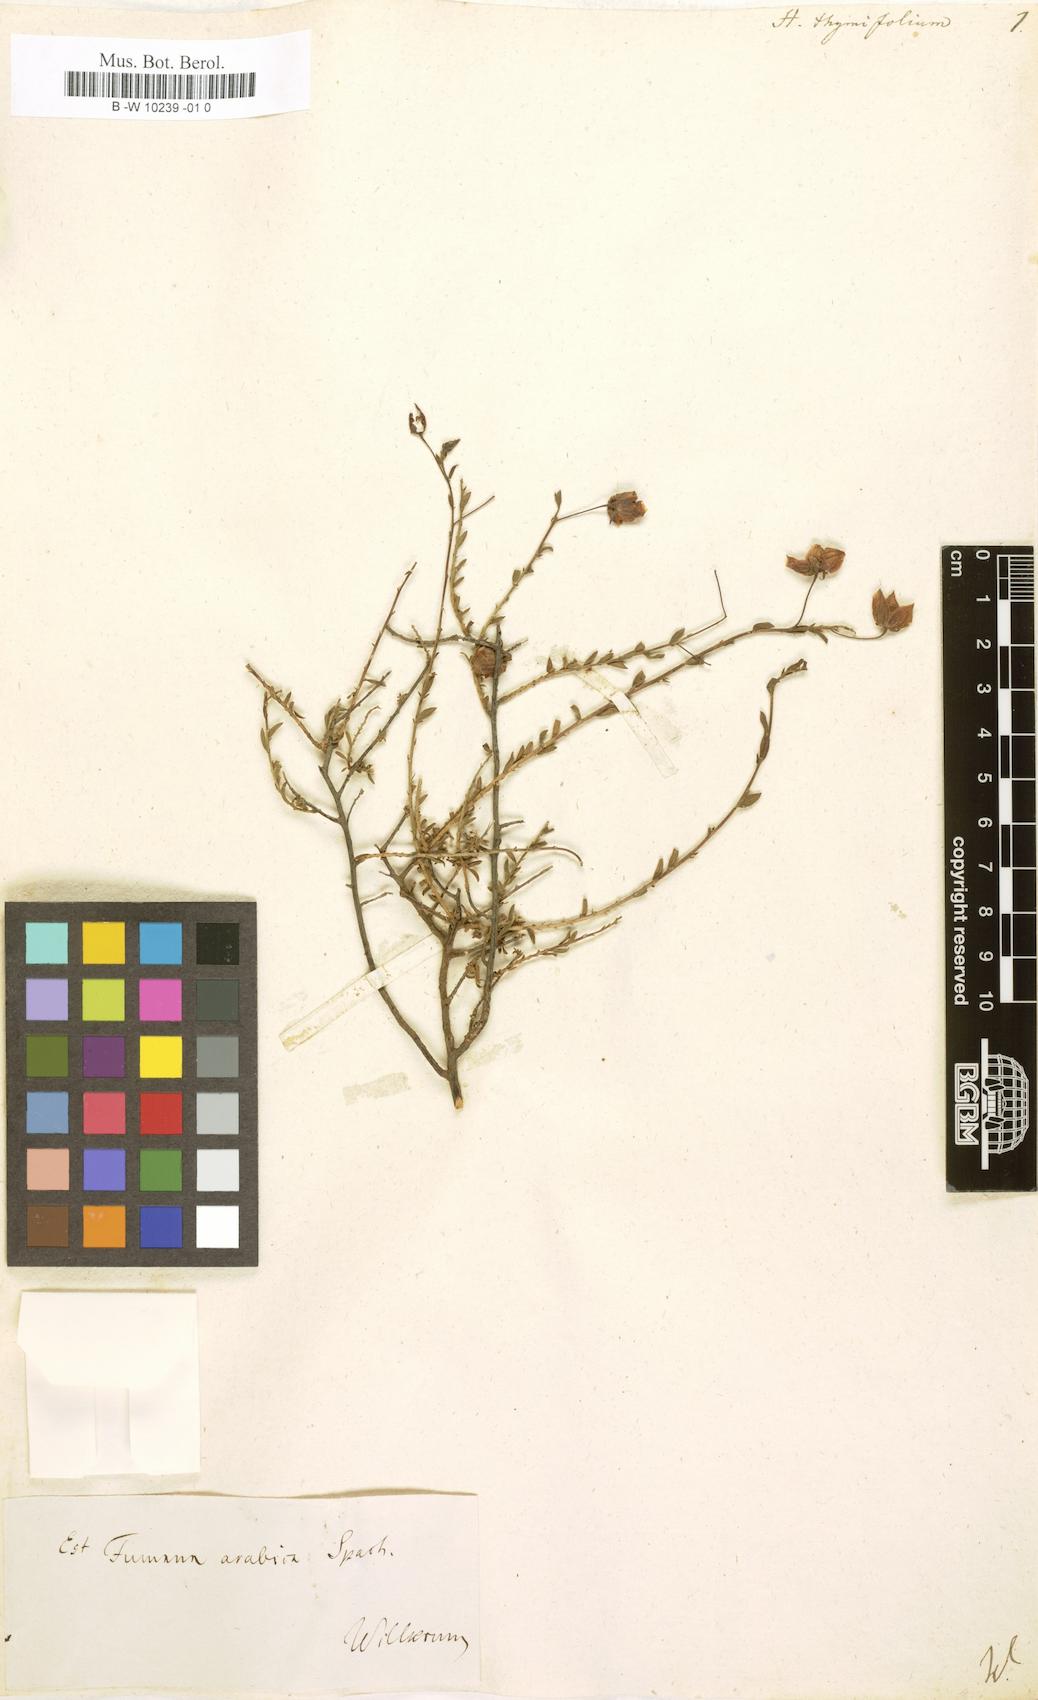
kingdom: Plantae
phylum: Tracheophyta
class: Magnoliopsida
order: Malvales
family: Cistaceae
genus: Fumana
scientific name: Fumana thymifolia
